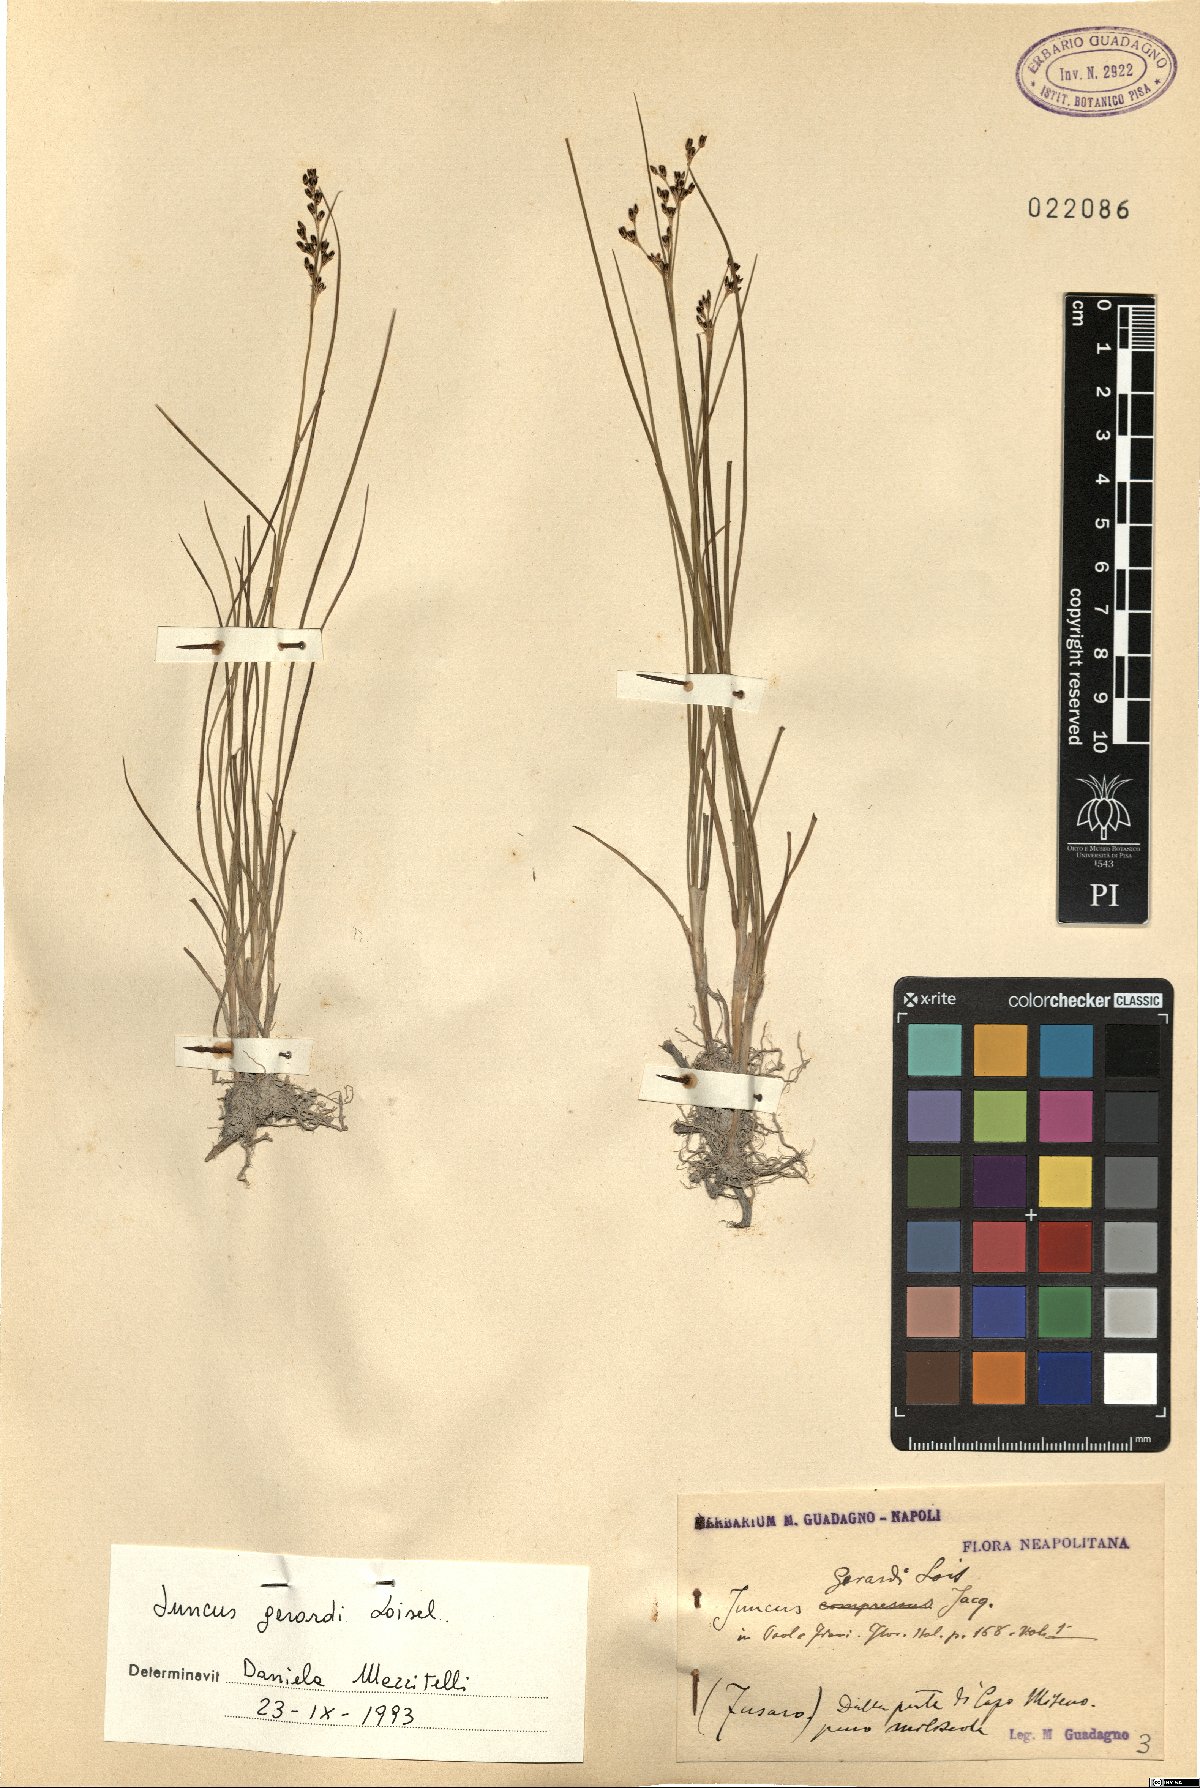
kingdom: Plantae
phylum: Tracheophyta
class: Liliopsida
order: Poales
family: Juncaceae
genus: Juncus
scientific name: Juncus gerardi
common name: Saltmarsh rush
